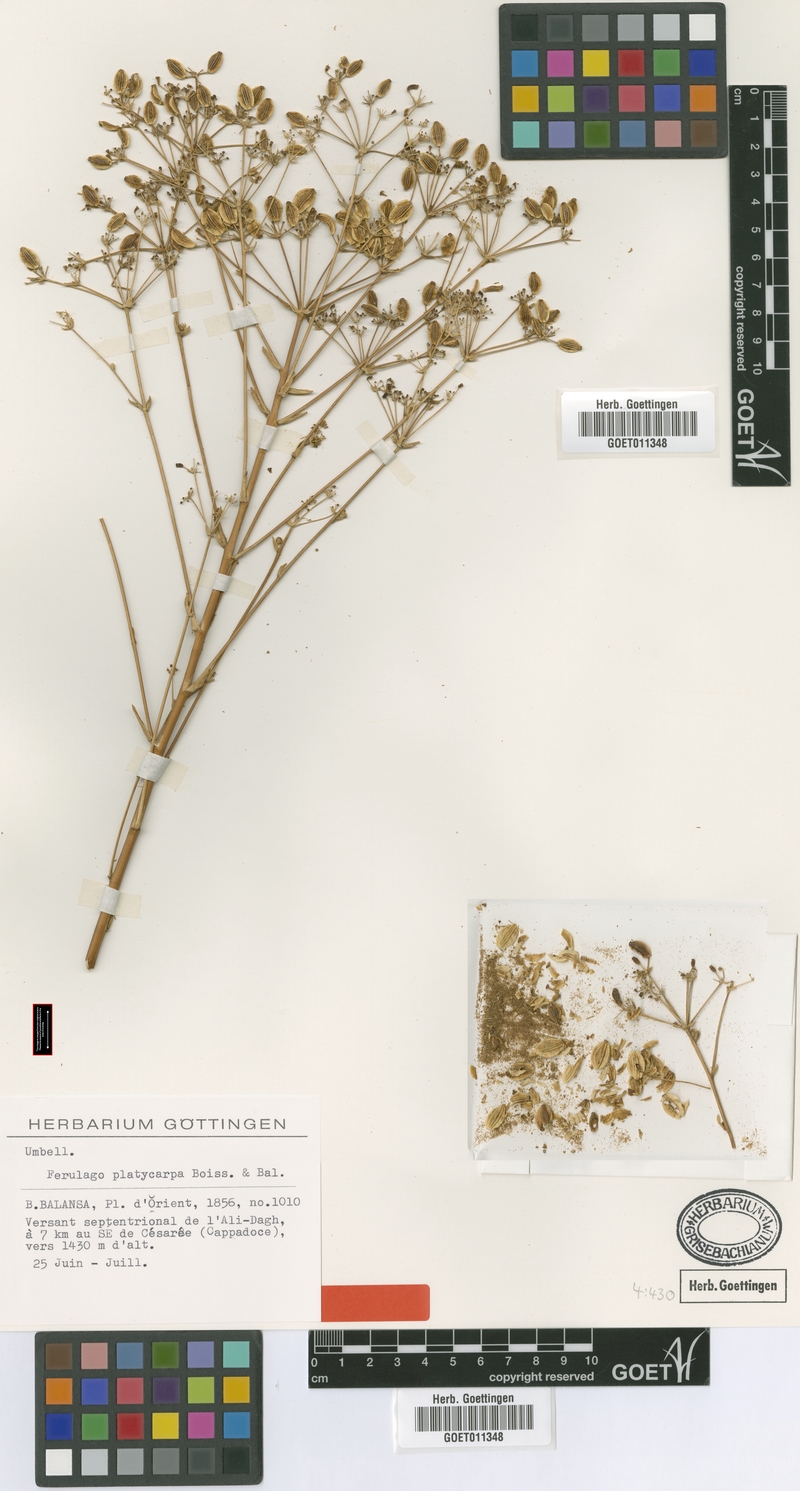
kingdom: Plantae
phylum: Tracheophyta
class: Magnoliopsida
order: Apiales
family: Apiaceae
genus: Ferulago
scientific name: Ferulago platycarpa
